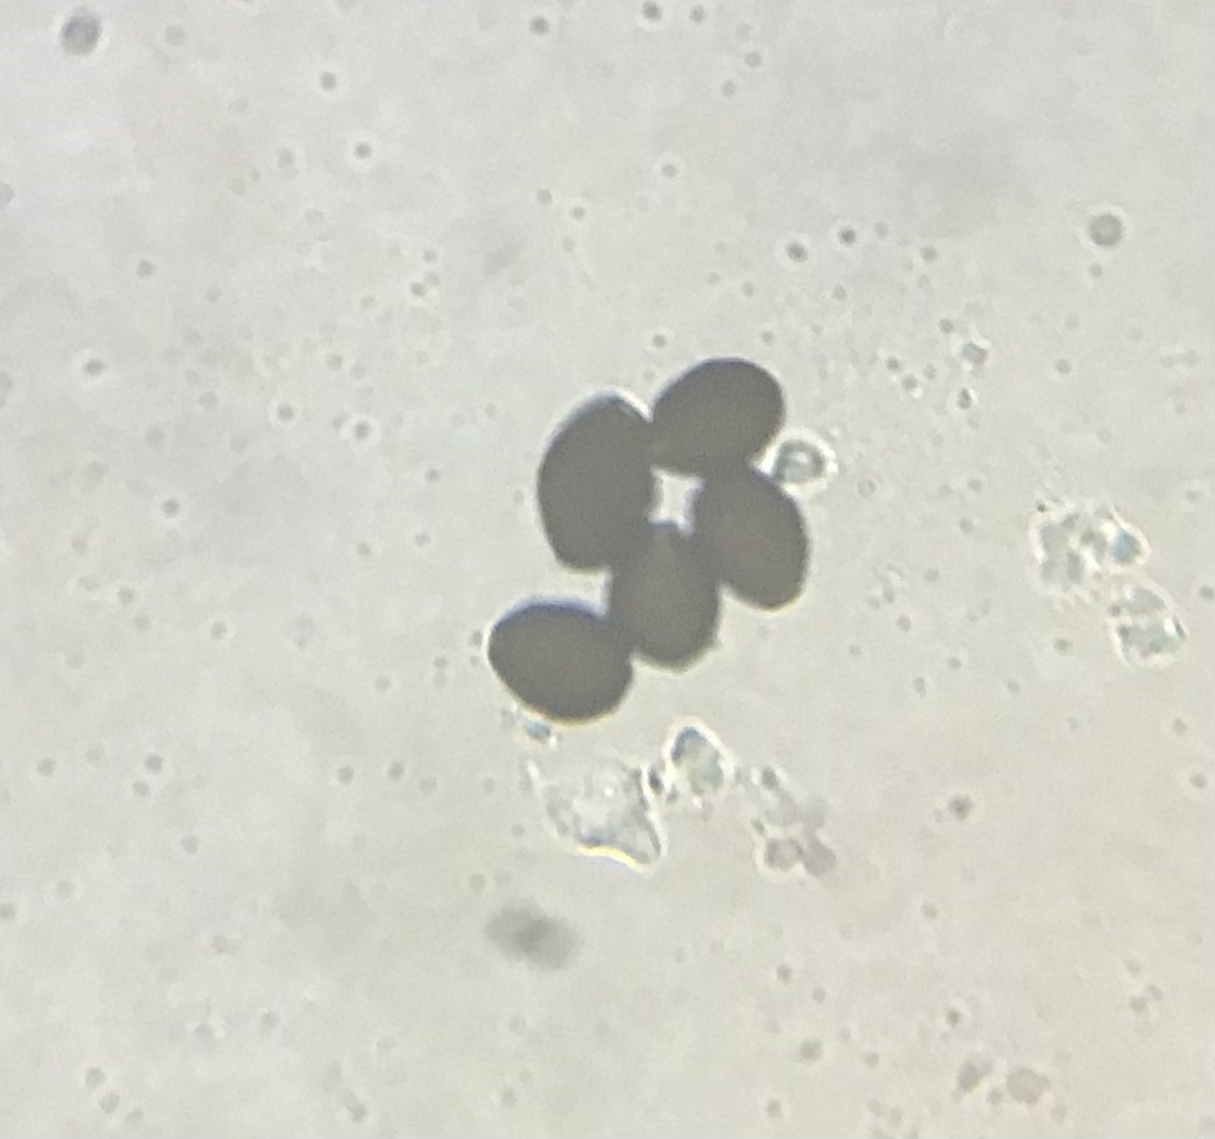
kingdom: Fungi
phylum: Basidiomycota
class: Agaricomycetes
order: Agaricales
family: Psathyrellaceae
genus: Parasola
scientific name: Parasola plicatilis-similis
